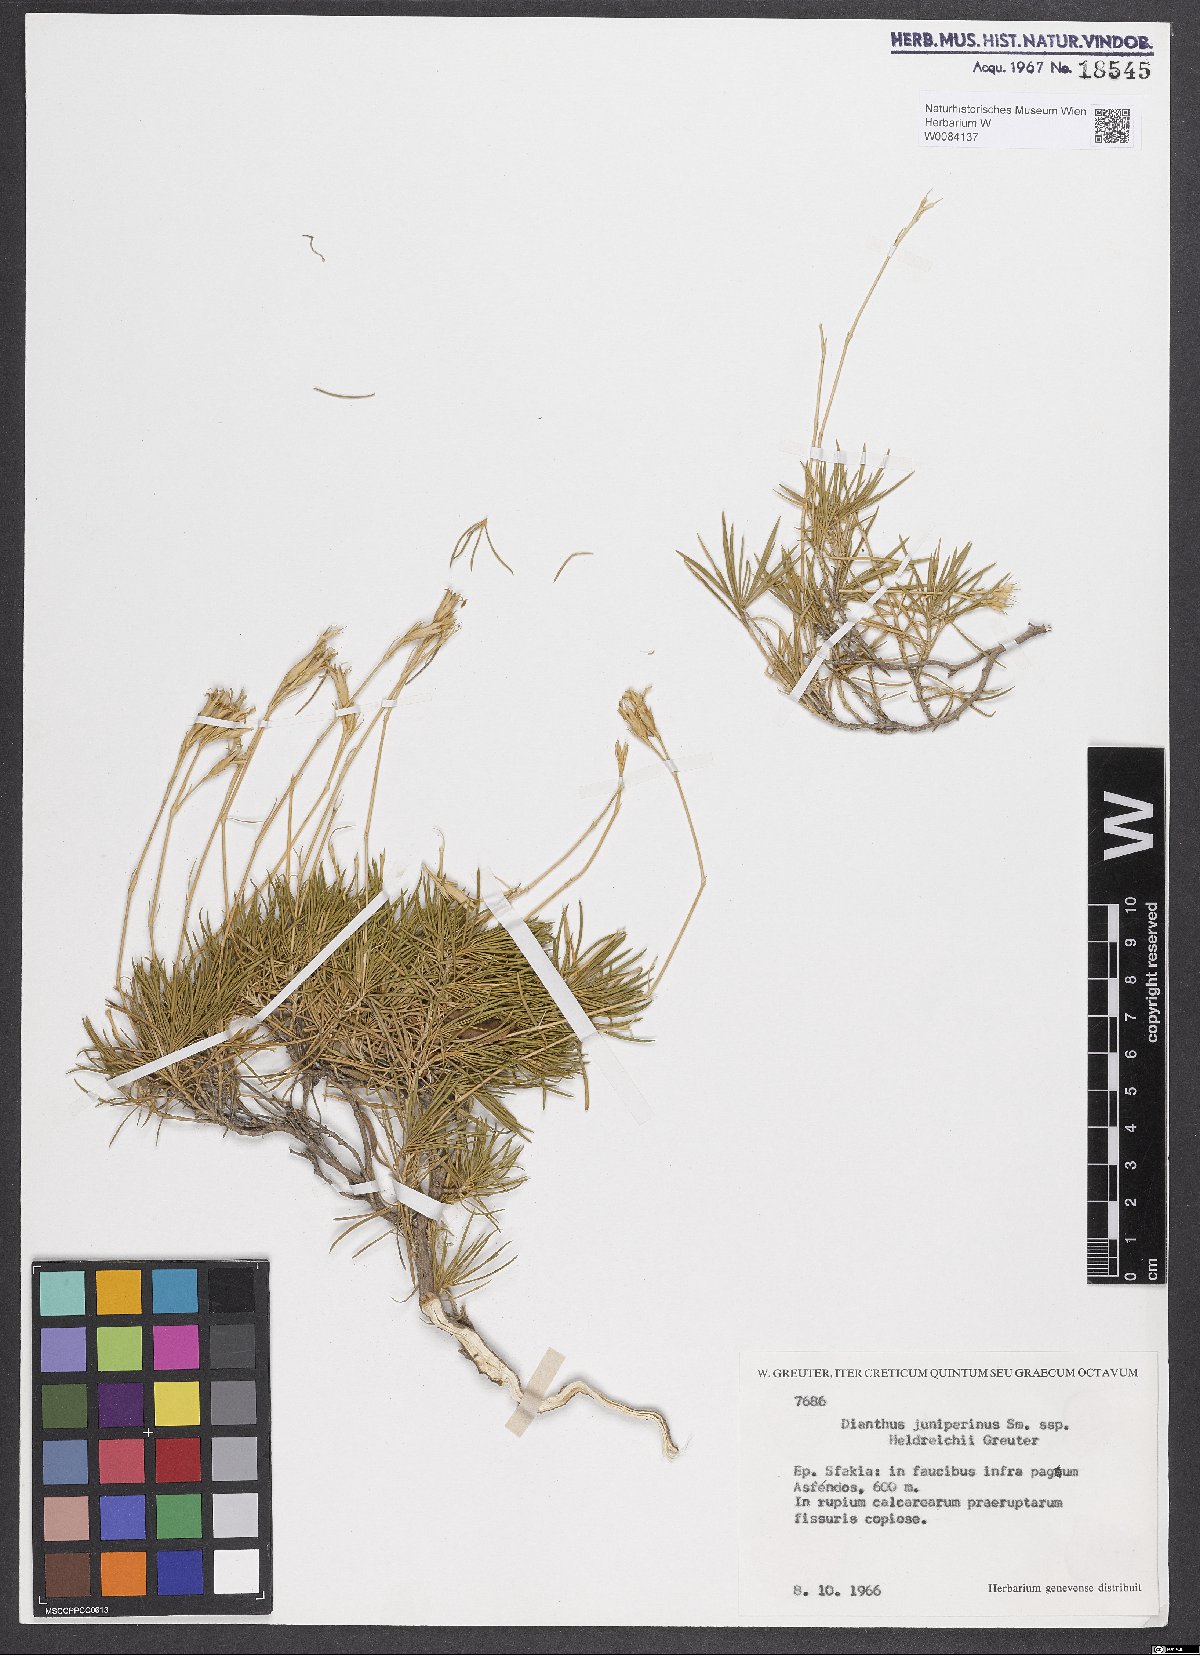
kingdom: Plantae
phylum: Tracheophyta
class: Magnoliopsida
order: Caryophyllales
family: Caryophyllaceae
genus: Dianthus
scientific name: Dianthus juniperinus
